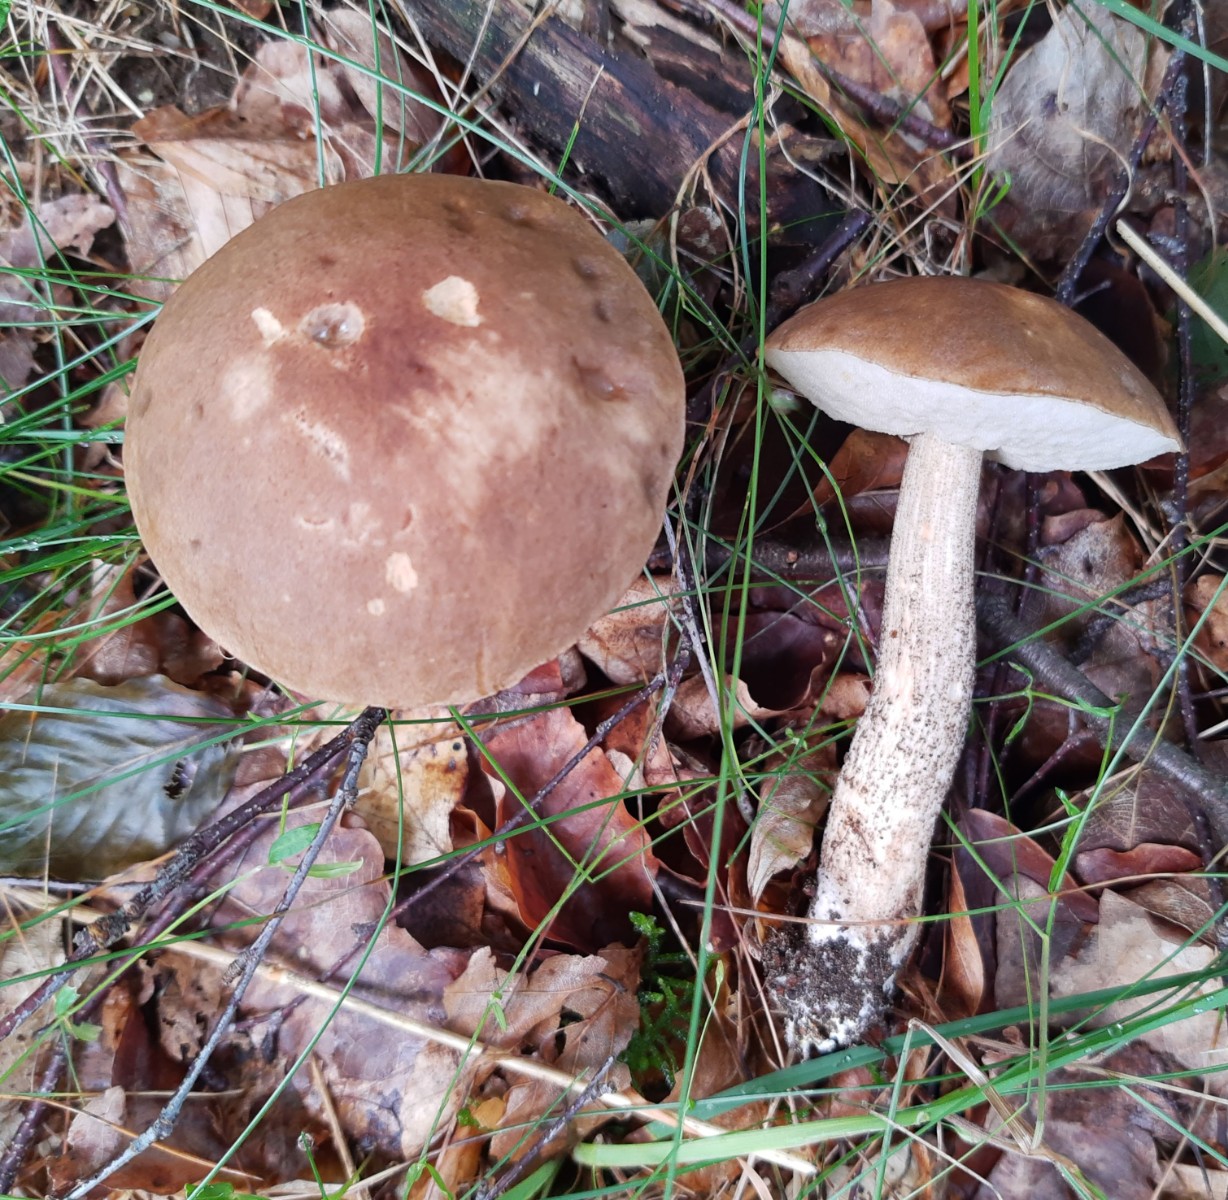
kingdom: Fungi
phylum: Basidiomycota
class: Agaricomycetes
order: Boletales
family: Boletaceae
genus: Leccinum
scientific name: Leccinum cyaneobasileucum
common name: almindelig skælrørhat
